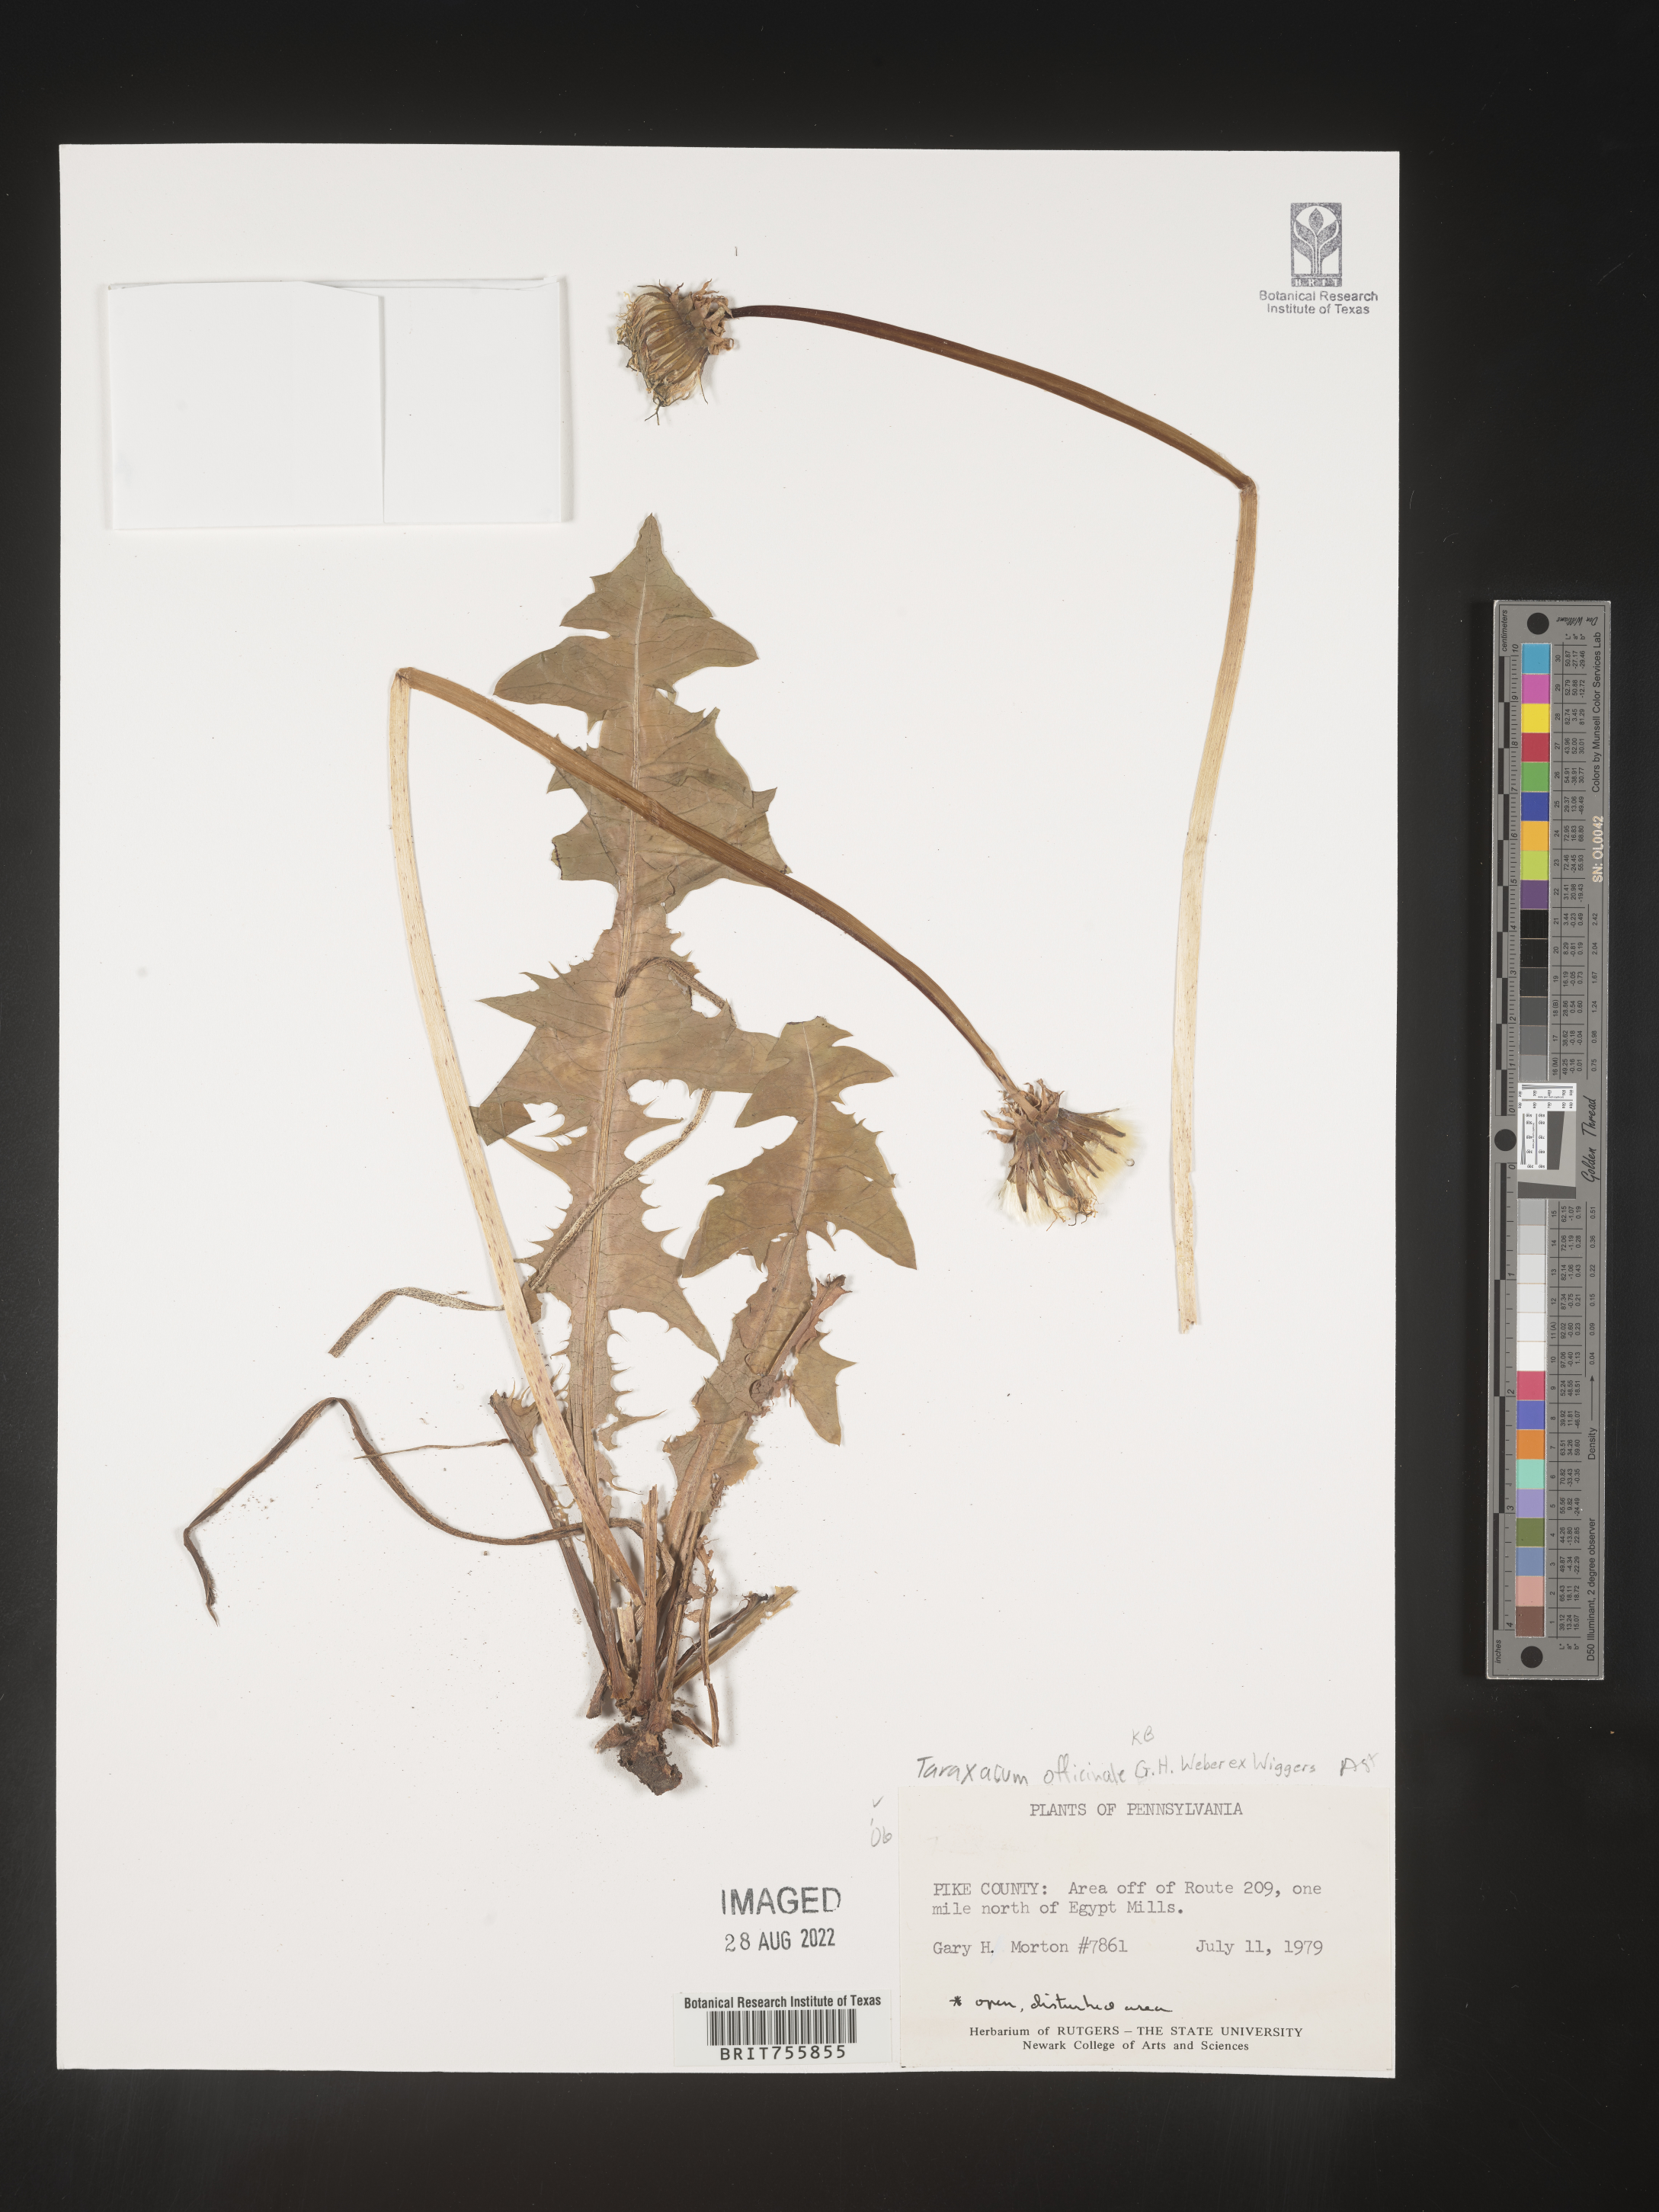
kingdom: Plantae
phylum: Tracheophyta
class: Magnoliopsida
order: Asterales
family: Asteraceae
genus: Taraxacum
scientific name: Taraxacum officinale
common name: Common dandelion
